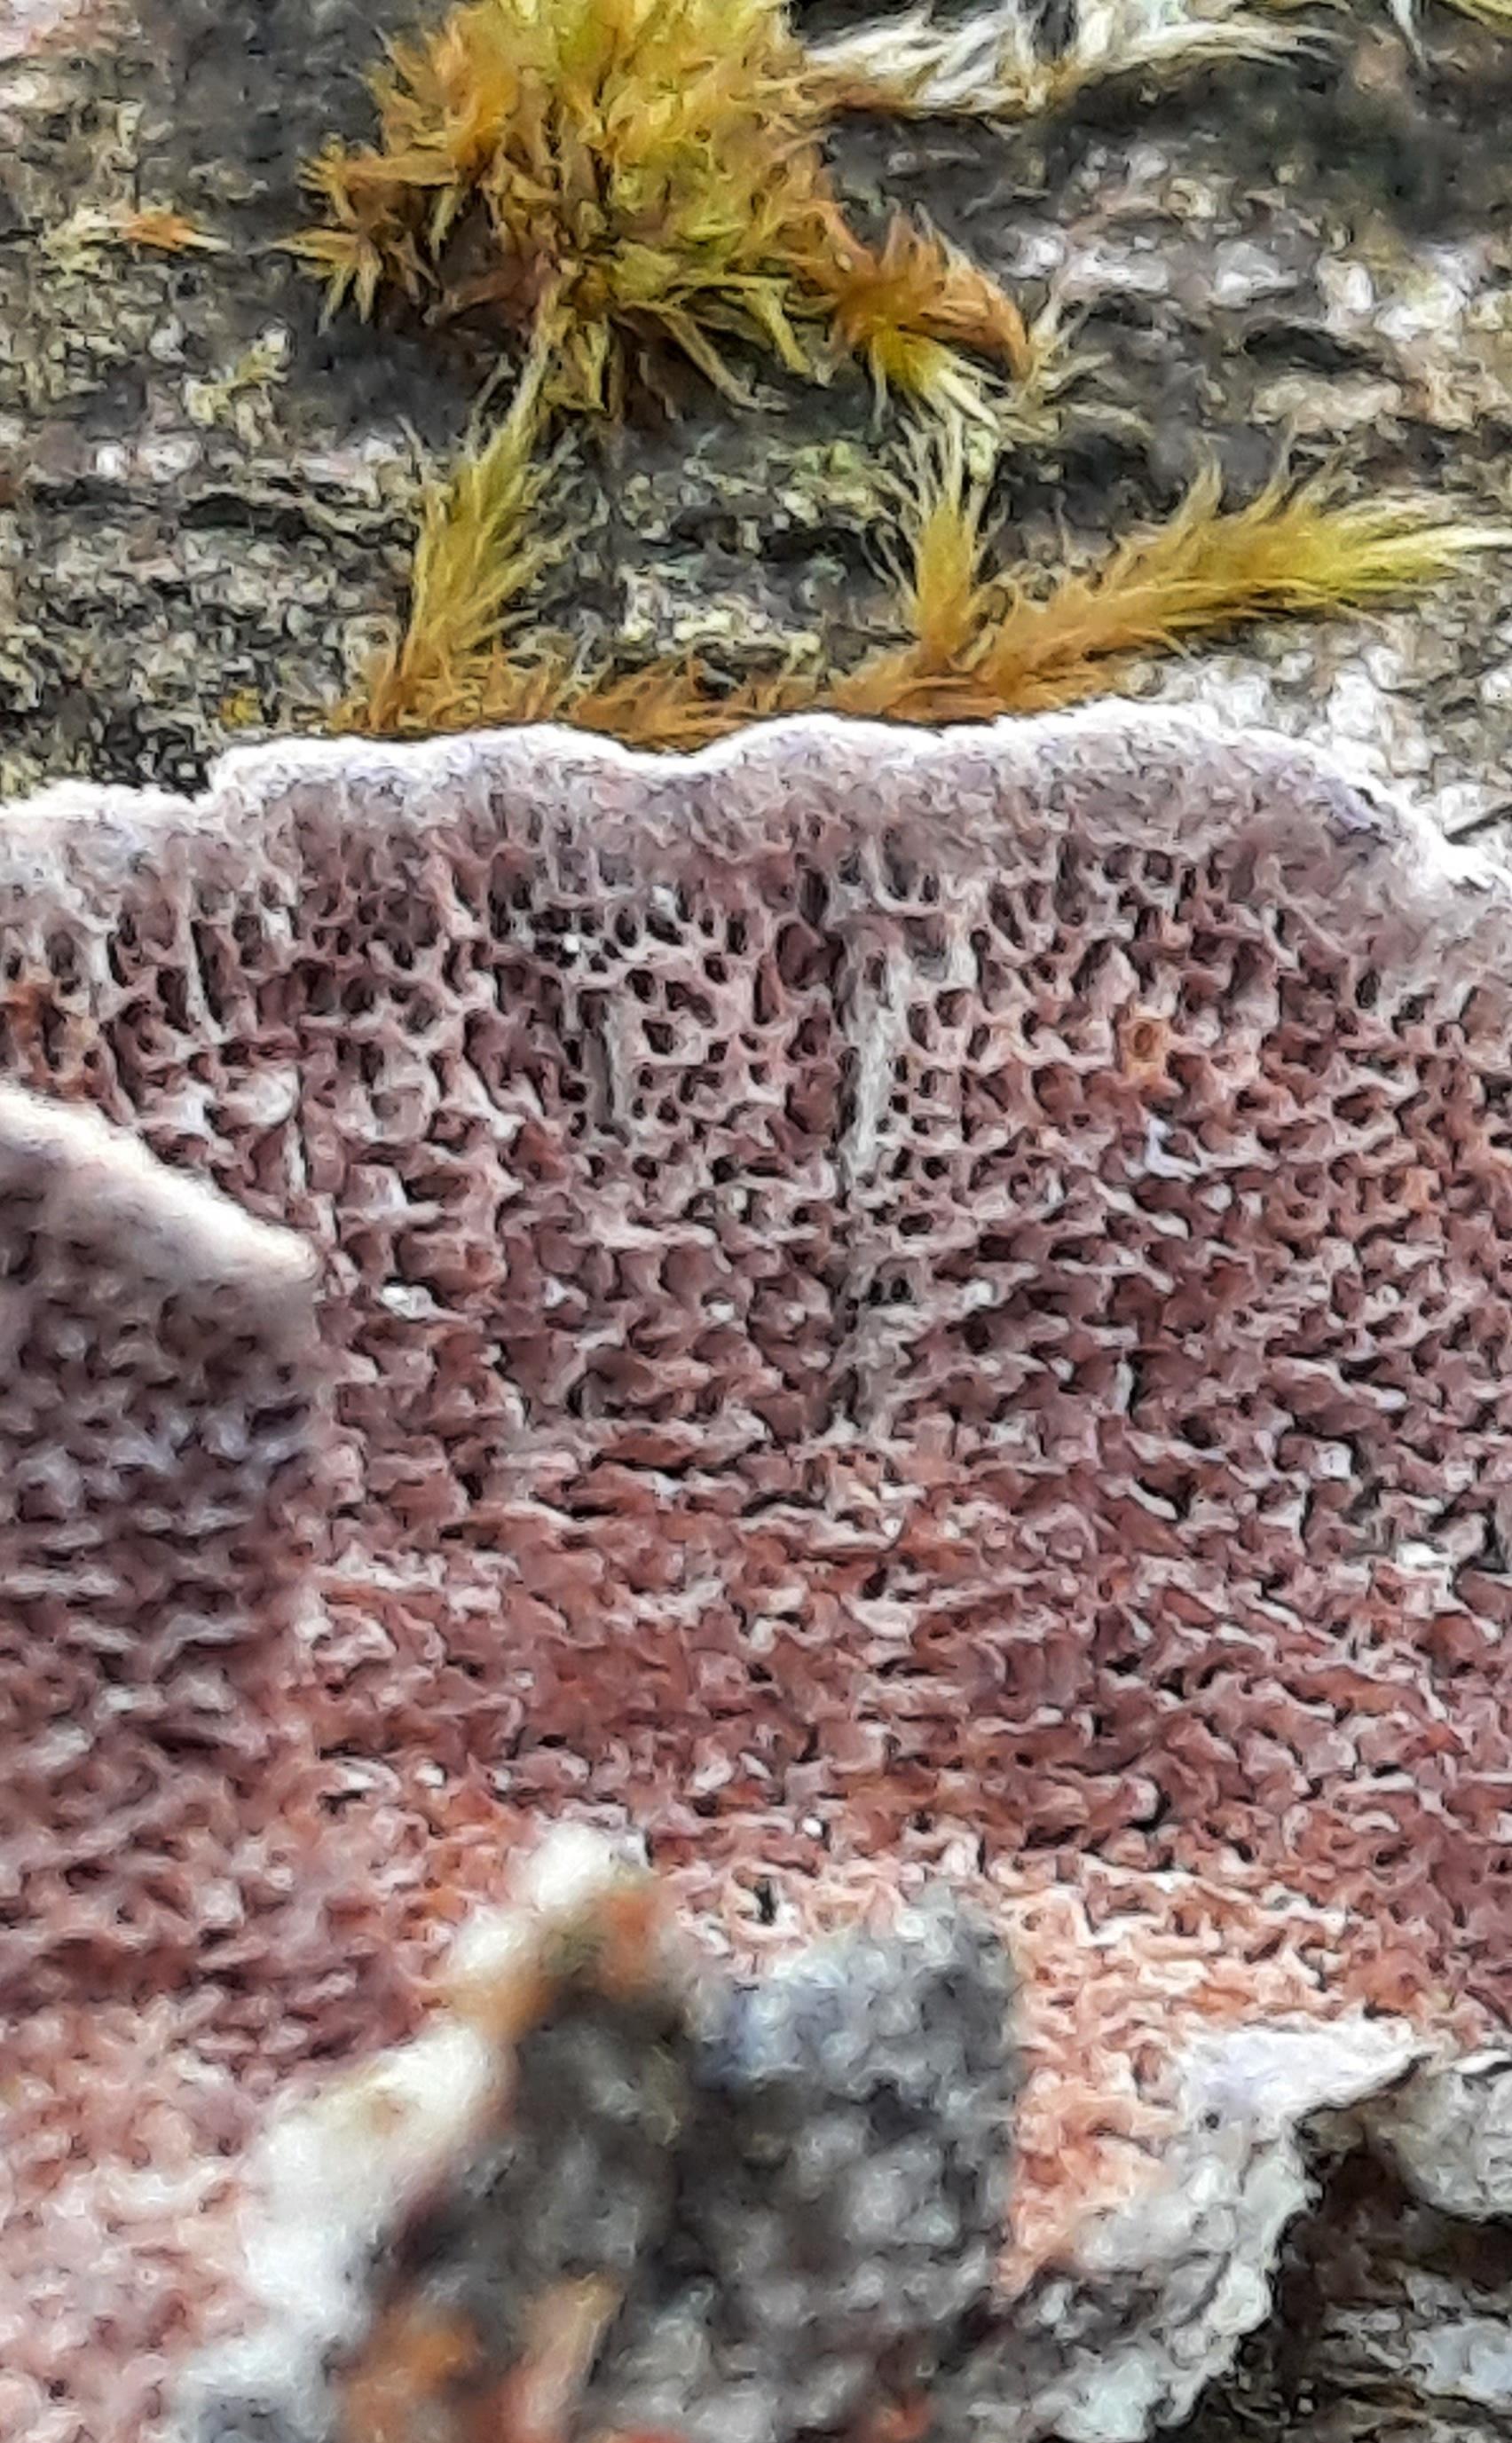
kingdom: Fungi
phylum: Basidiomycota
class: Agaricomycetes
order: Hymenochaetales
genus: Trichaptum
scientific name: Trichaptum fuscoviolaceum
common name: tandet violporesvamp
